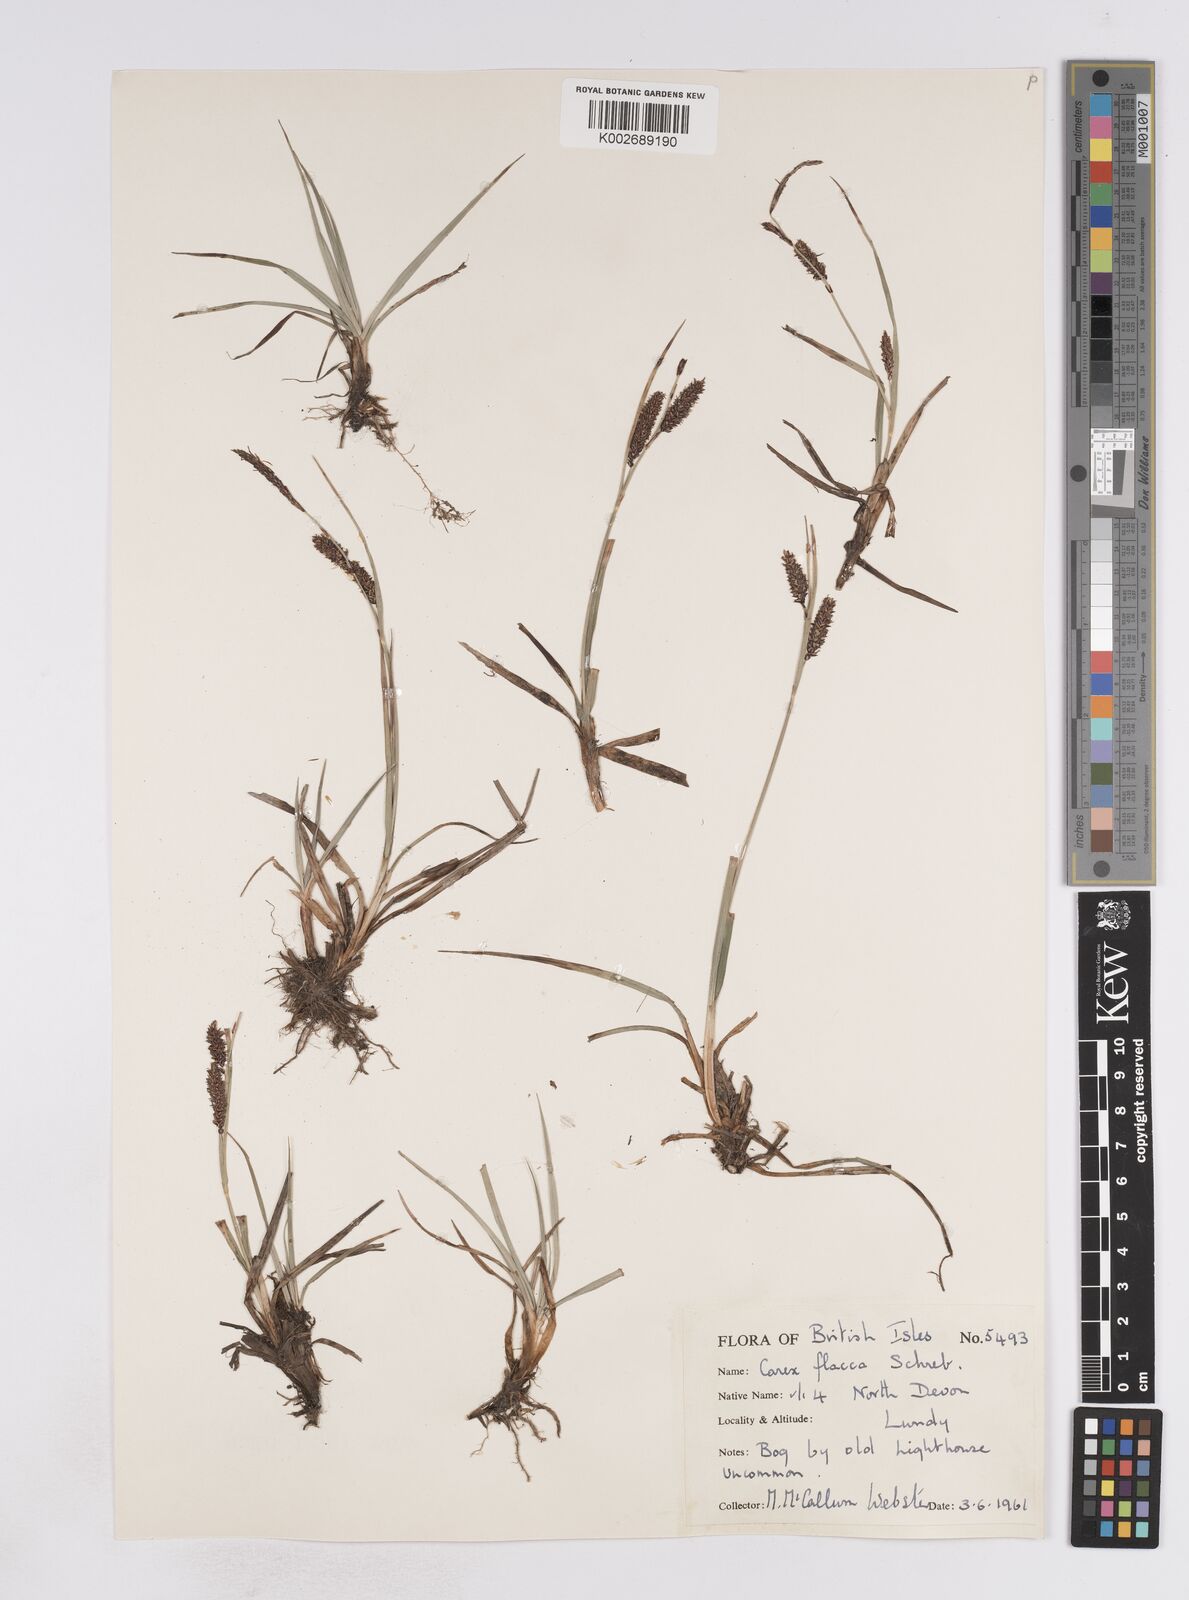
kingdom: Plantae
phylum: Tracheophyta
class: Liliopsida
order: Poales
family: Cyperaceae
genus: Carex
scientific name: Carex flacca
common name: Glaucous sedge
